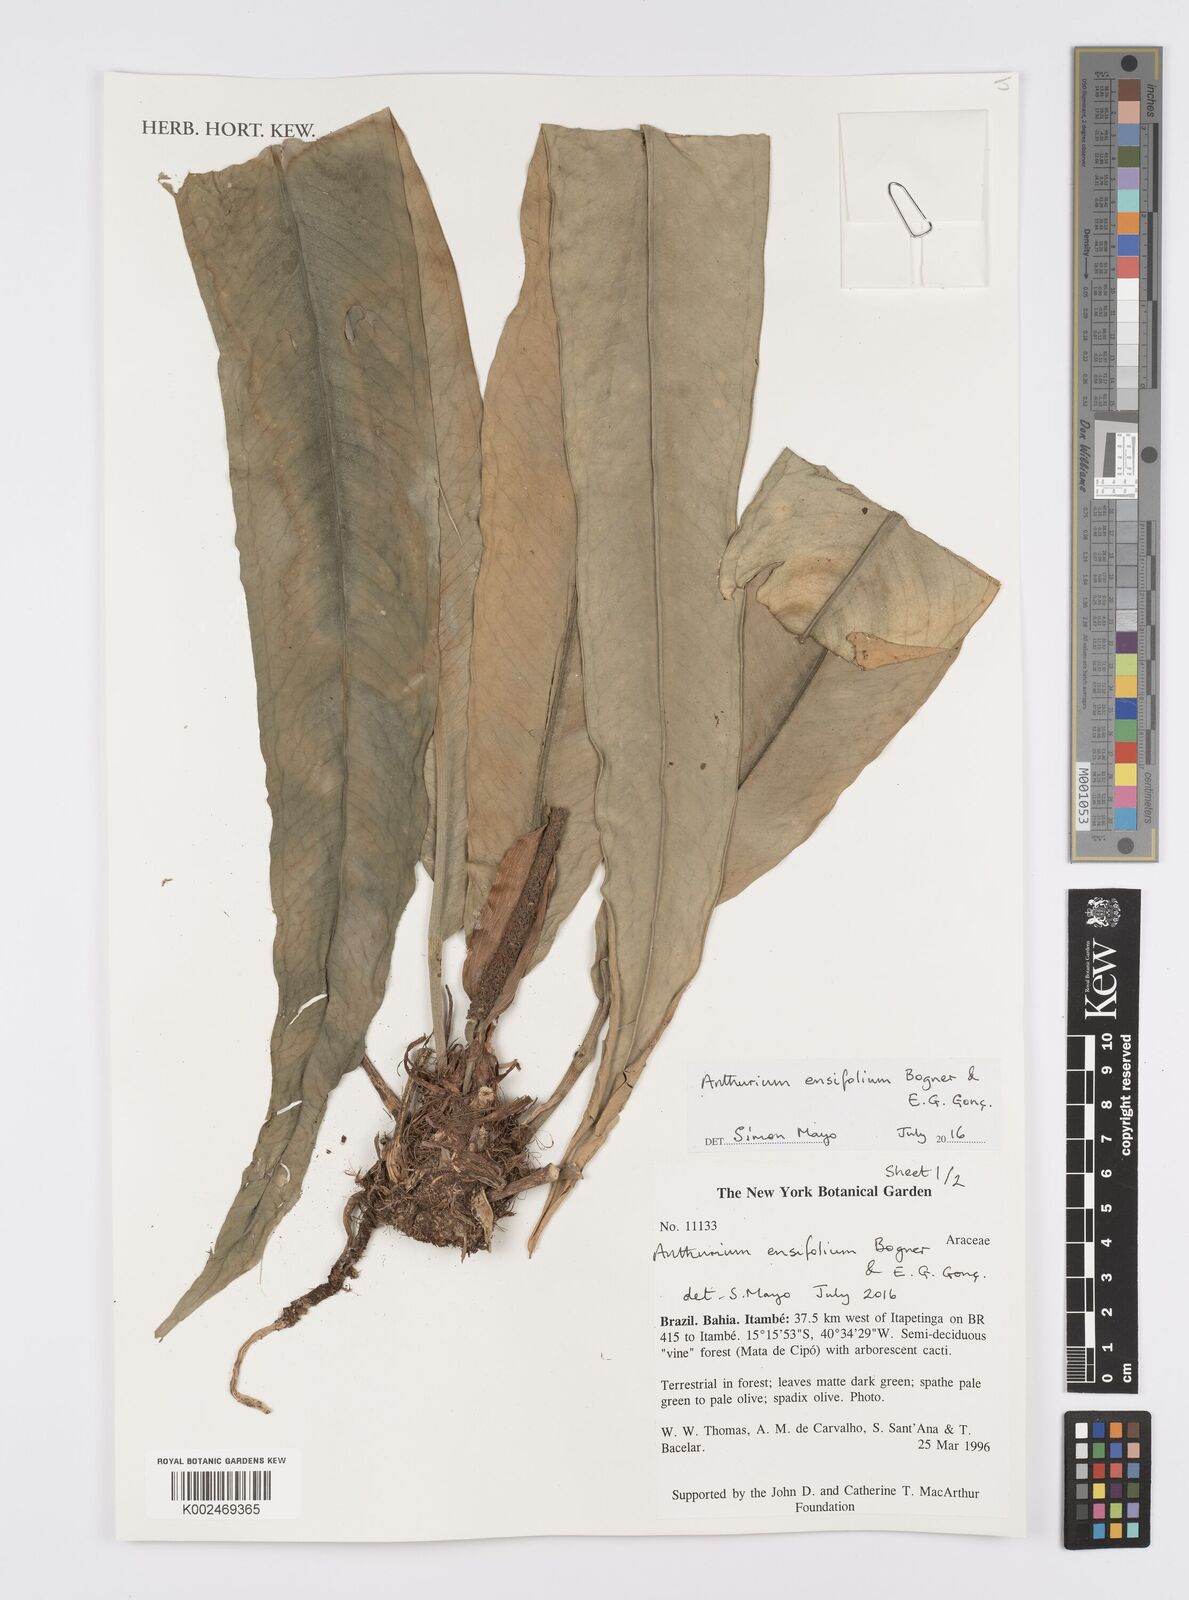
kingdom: Plantae
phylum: Tracheophyta
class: Liliopsida
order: Alismatales
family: Araceae
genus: Anthurium
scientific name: Anthurium ensifolium
